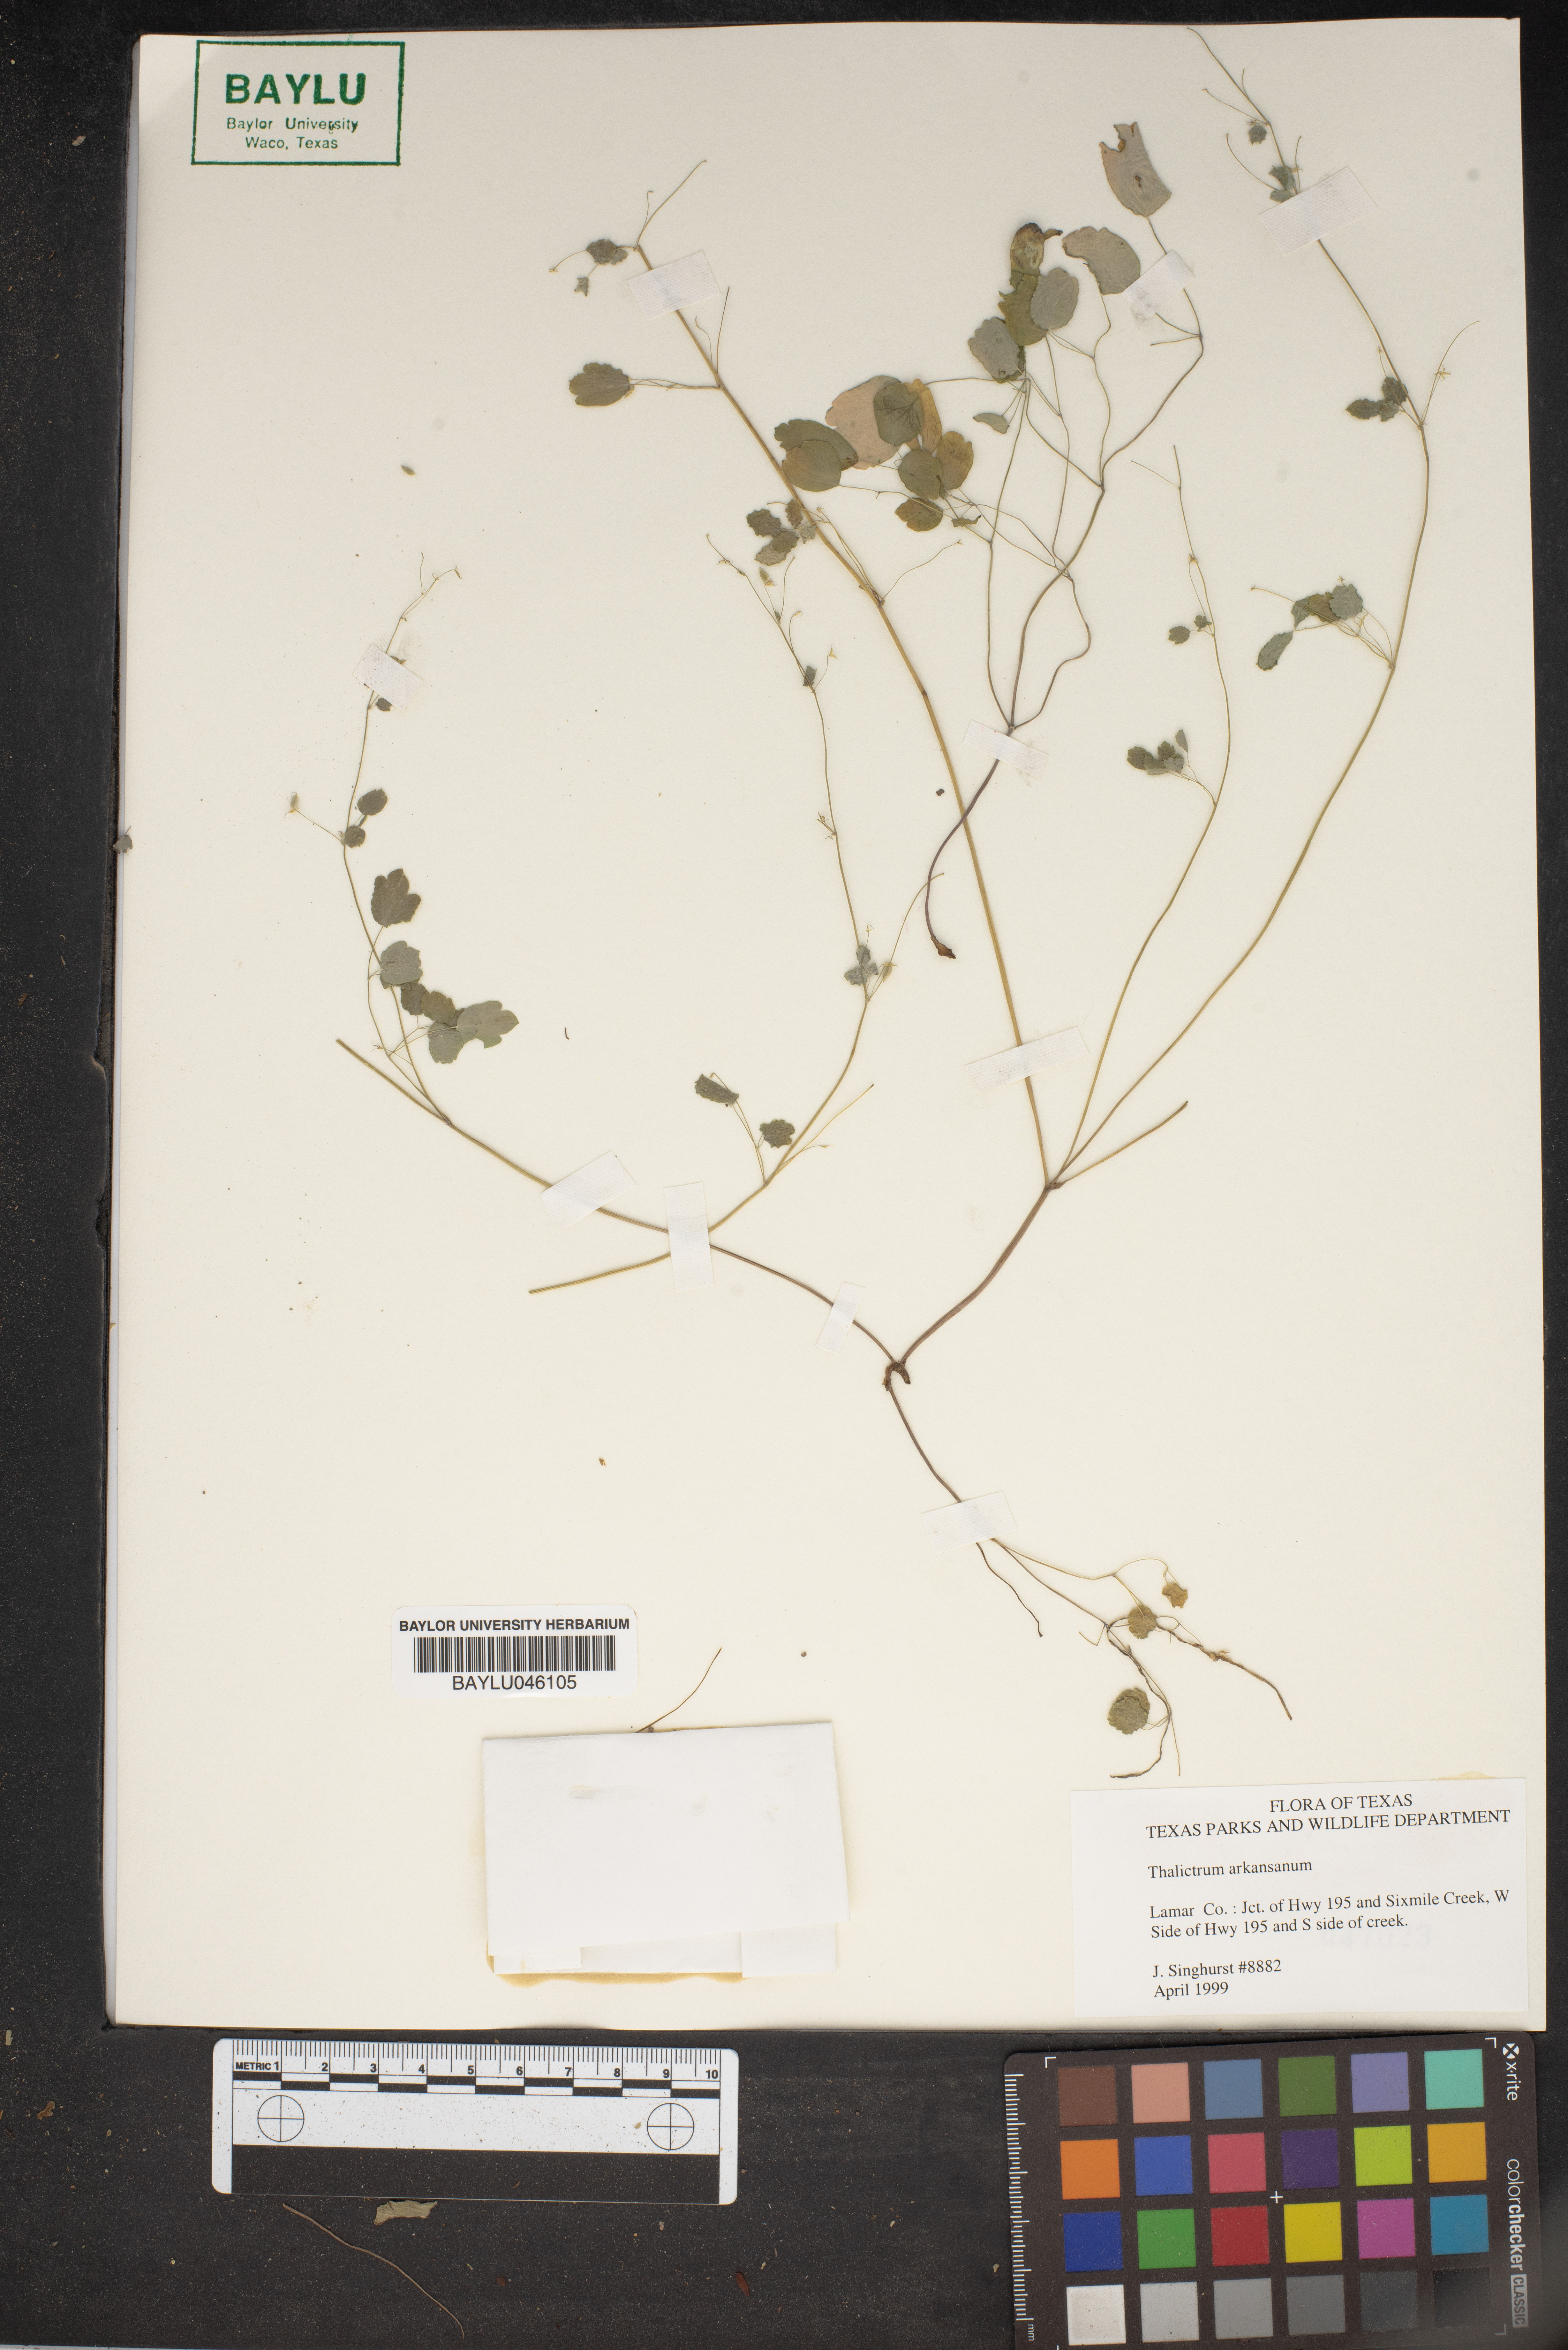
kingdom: Plantae
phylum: Tracheophyta
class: Magnoliopsida
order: Ranunculales
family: Ranunculaceae
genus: Thalictrum
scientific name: Thalictrum arkansanum
